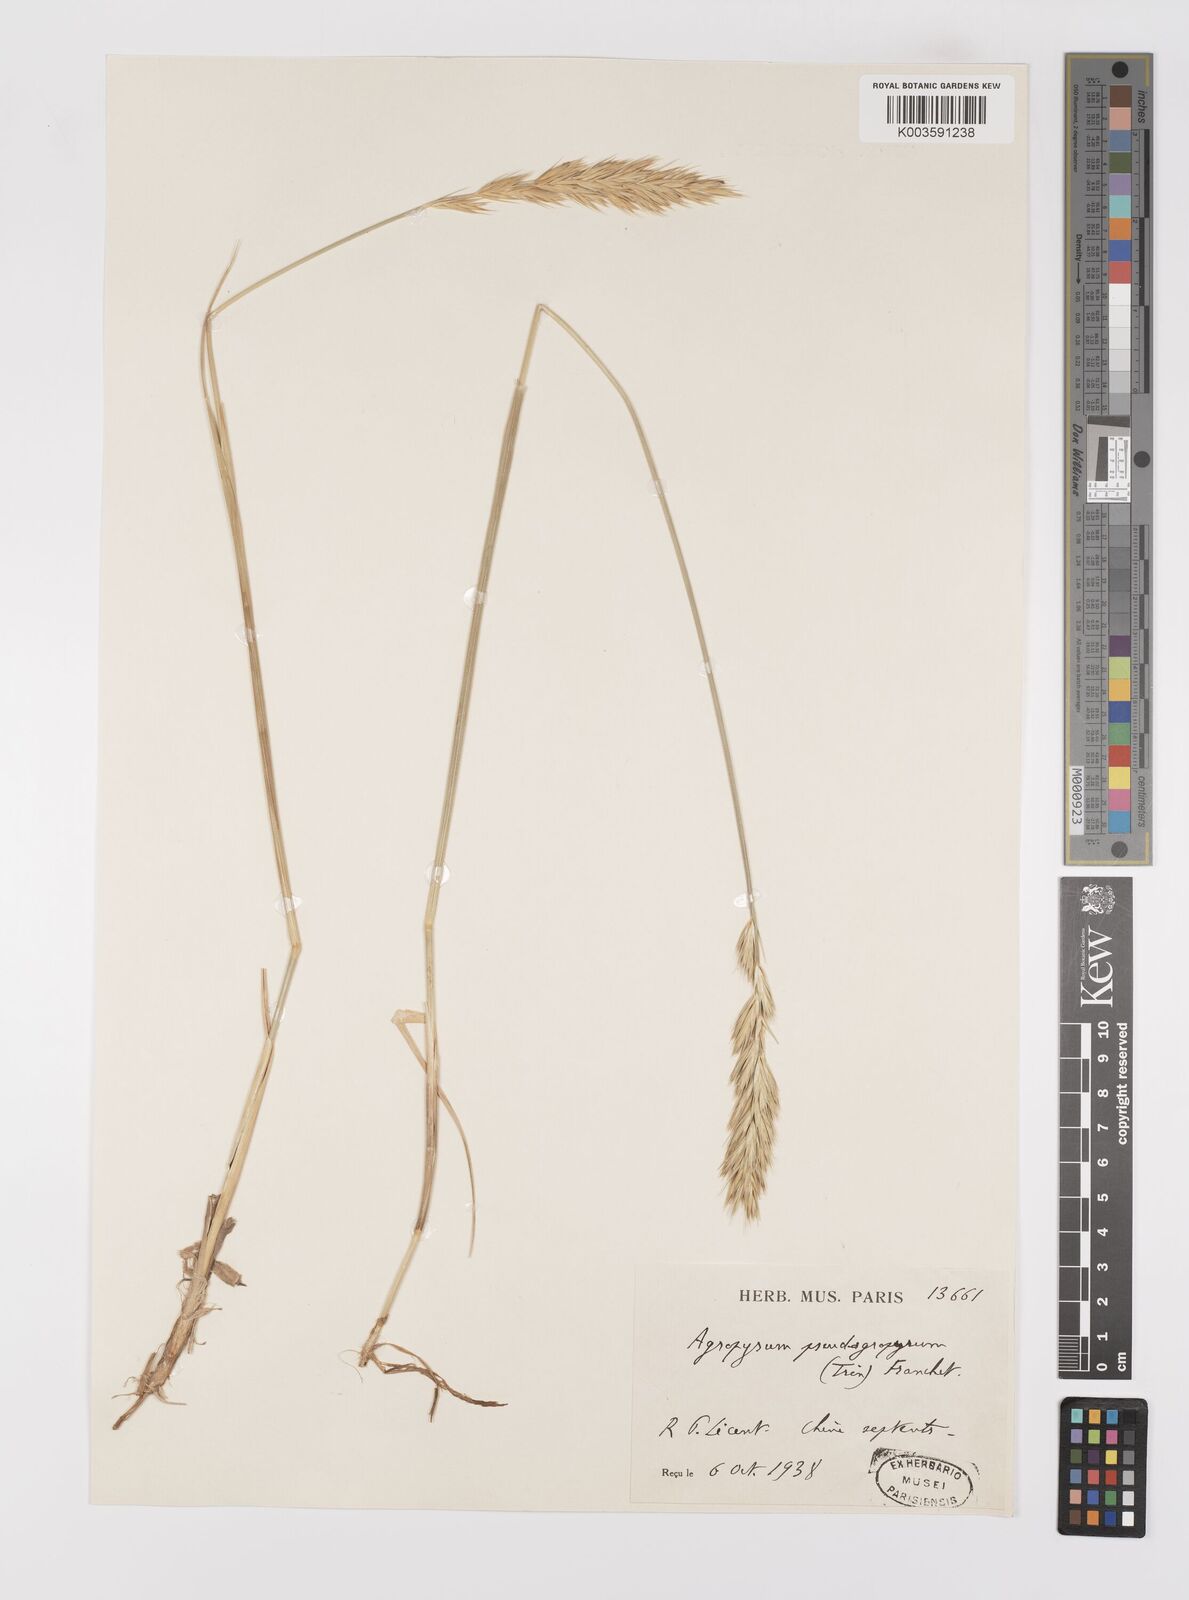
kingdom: Plantae
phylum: Tracheophyta
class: Liliopsida
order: Poales
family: Poaceae
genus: Leymus
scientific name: Leymus chinensis
